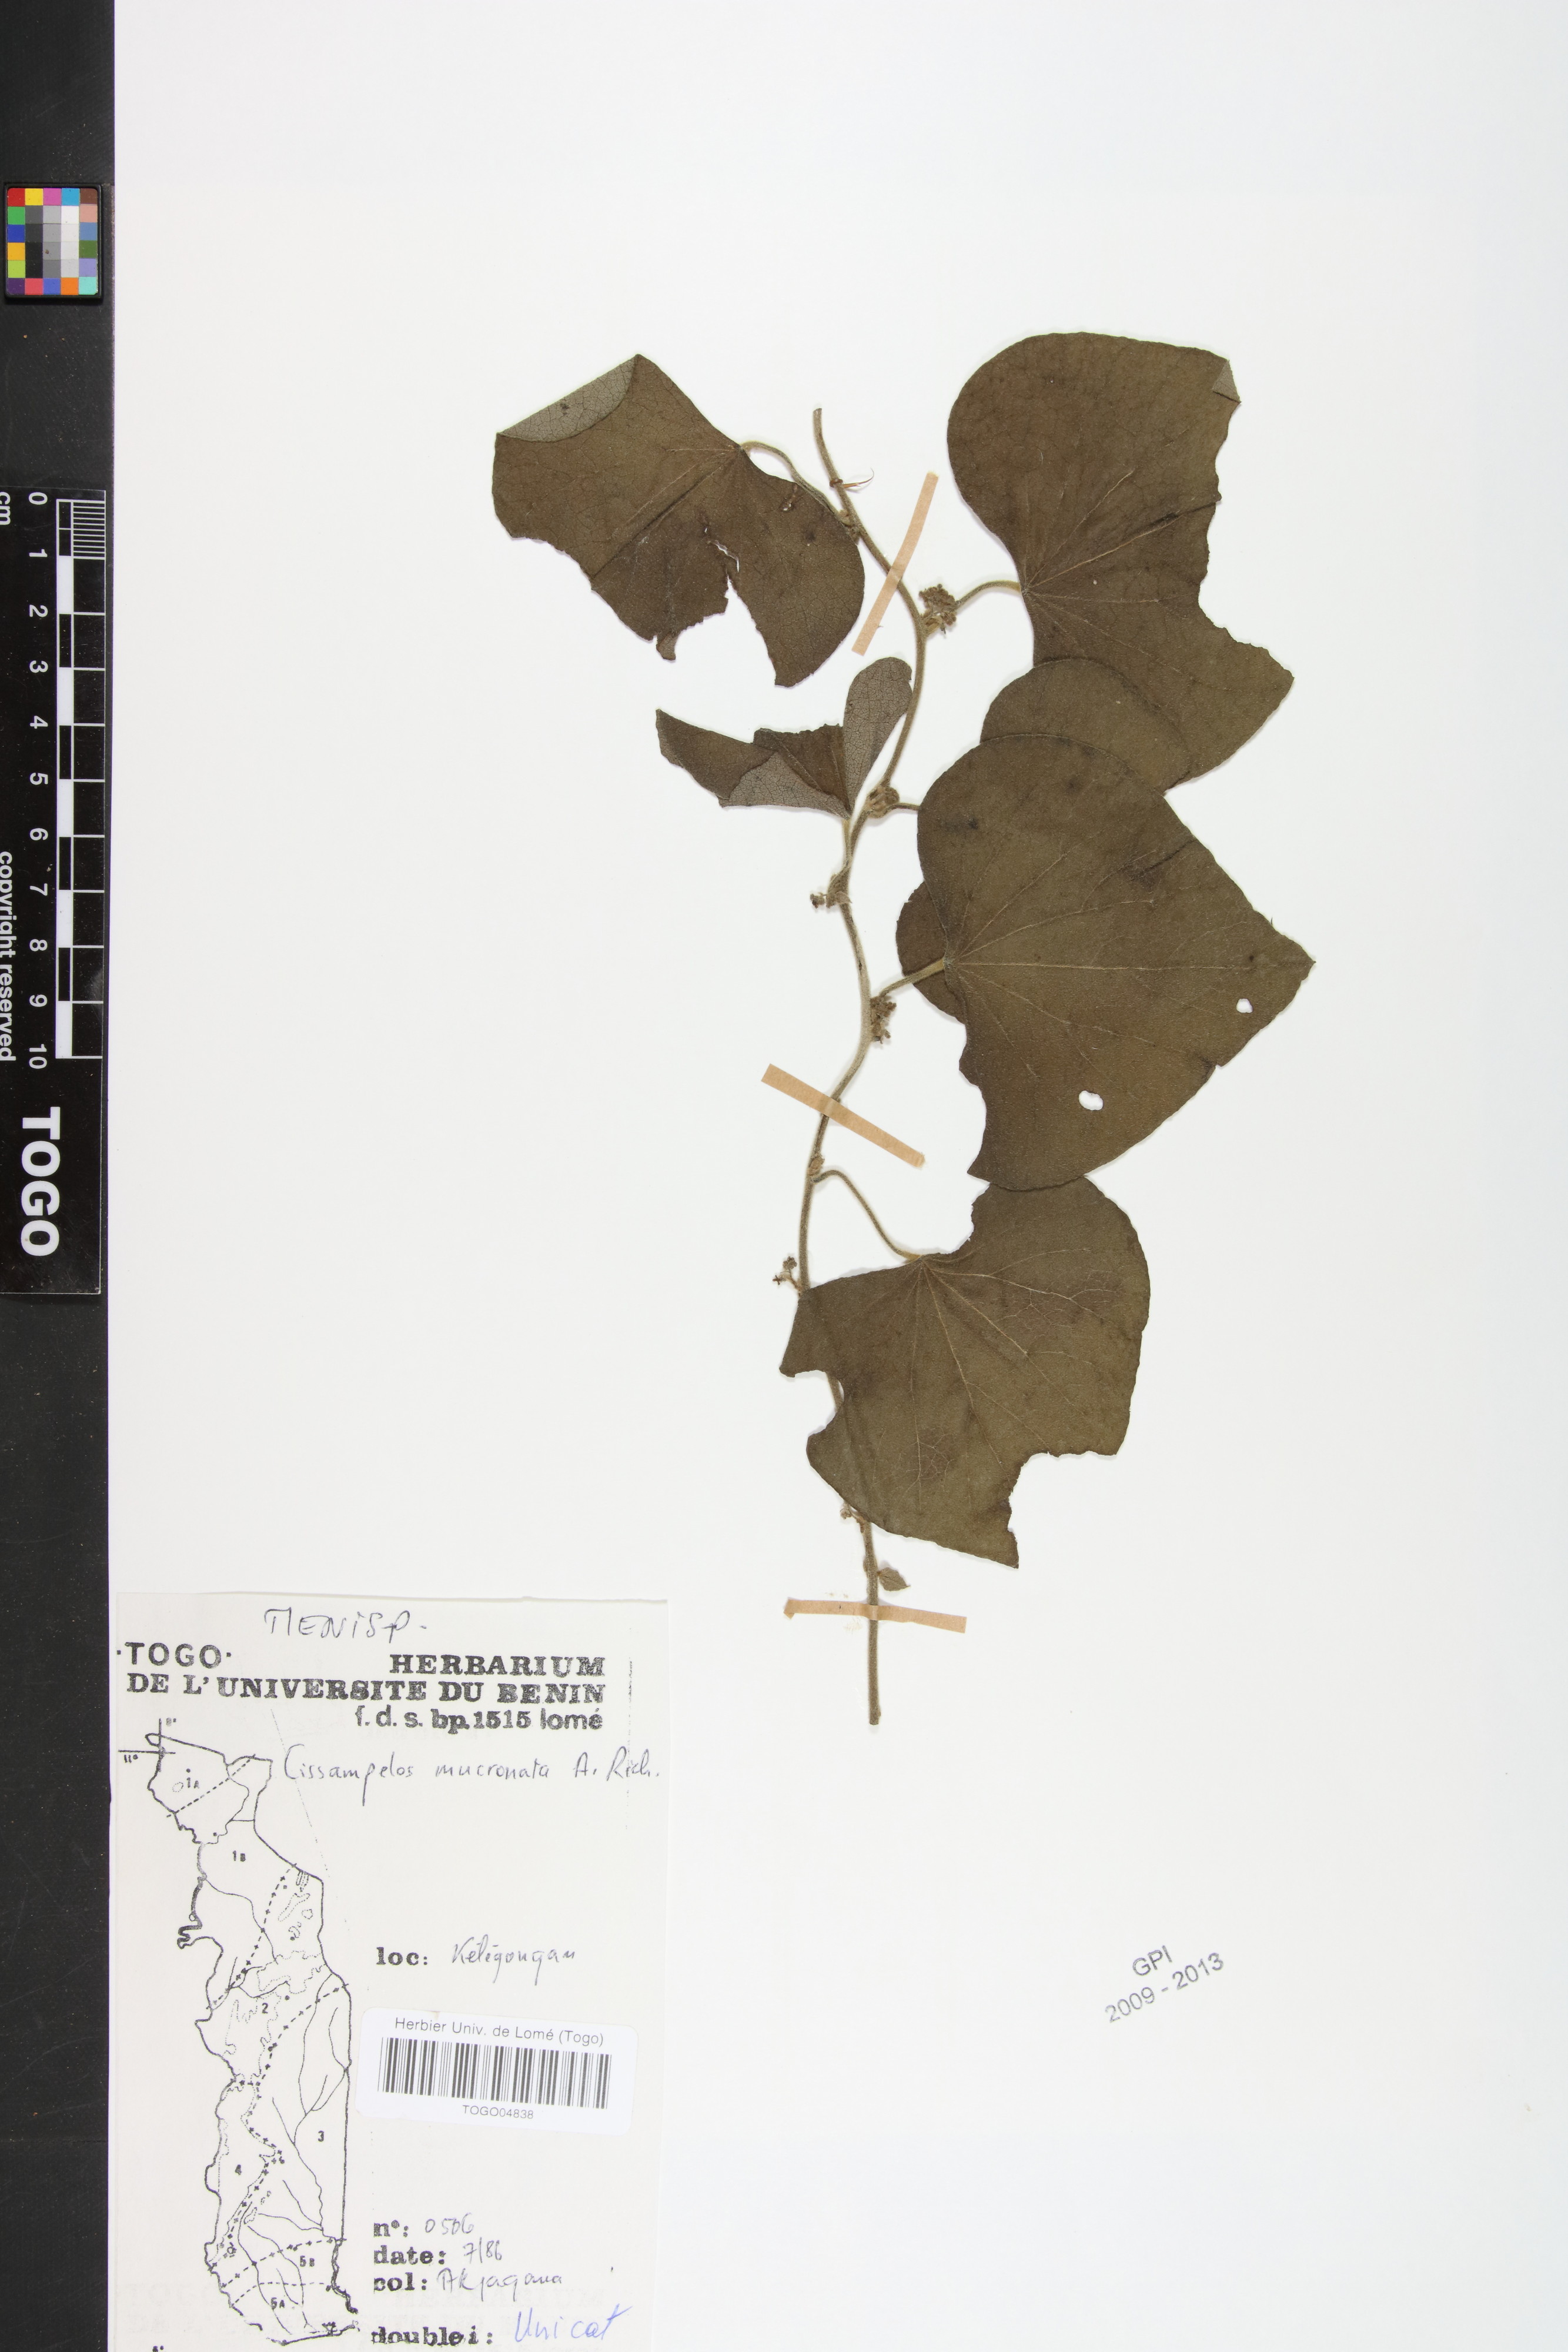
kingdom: Plantae
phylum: Tracheophyta
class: Magnoliopsida
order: Ranunculales
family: Menispermaceae
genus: Cissampelos
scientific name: Cissampelos mucronata
